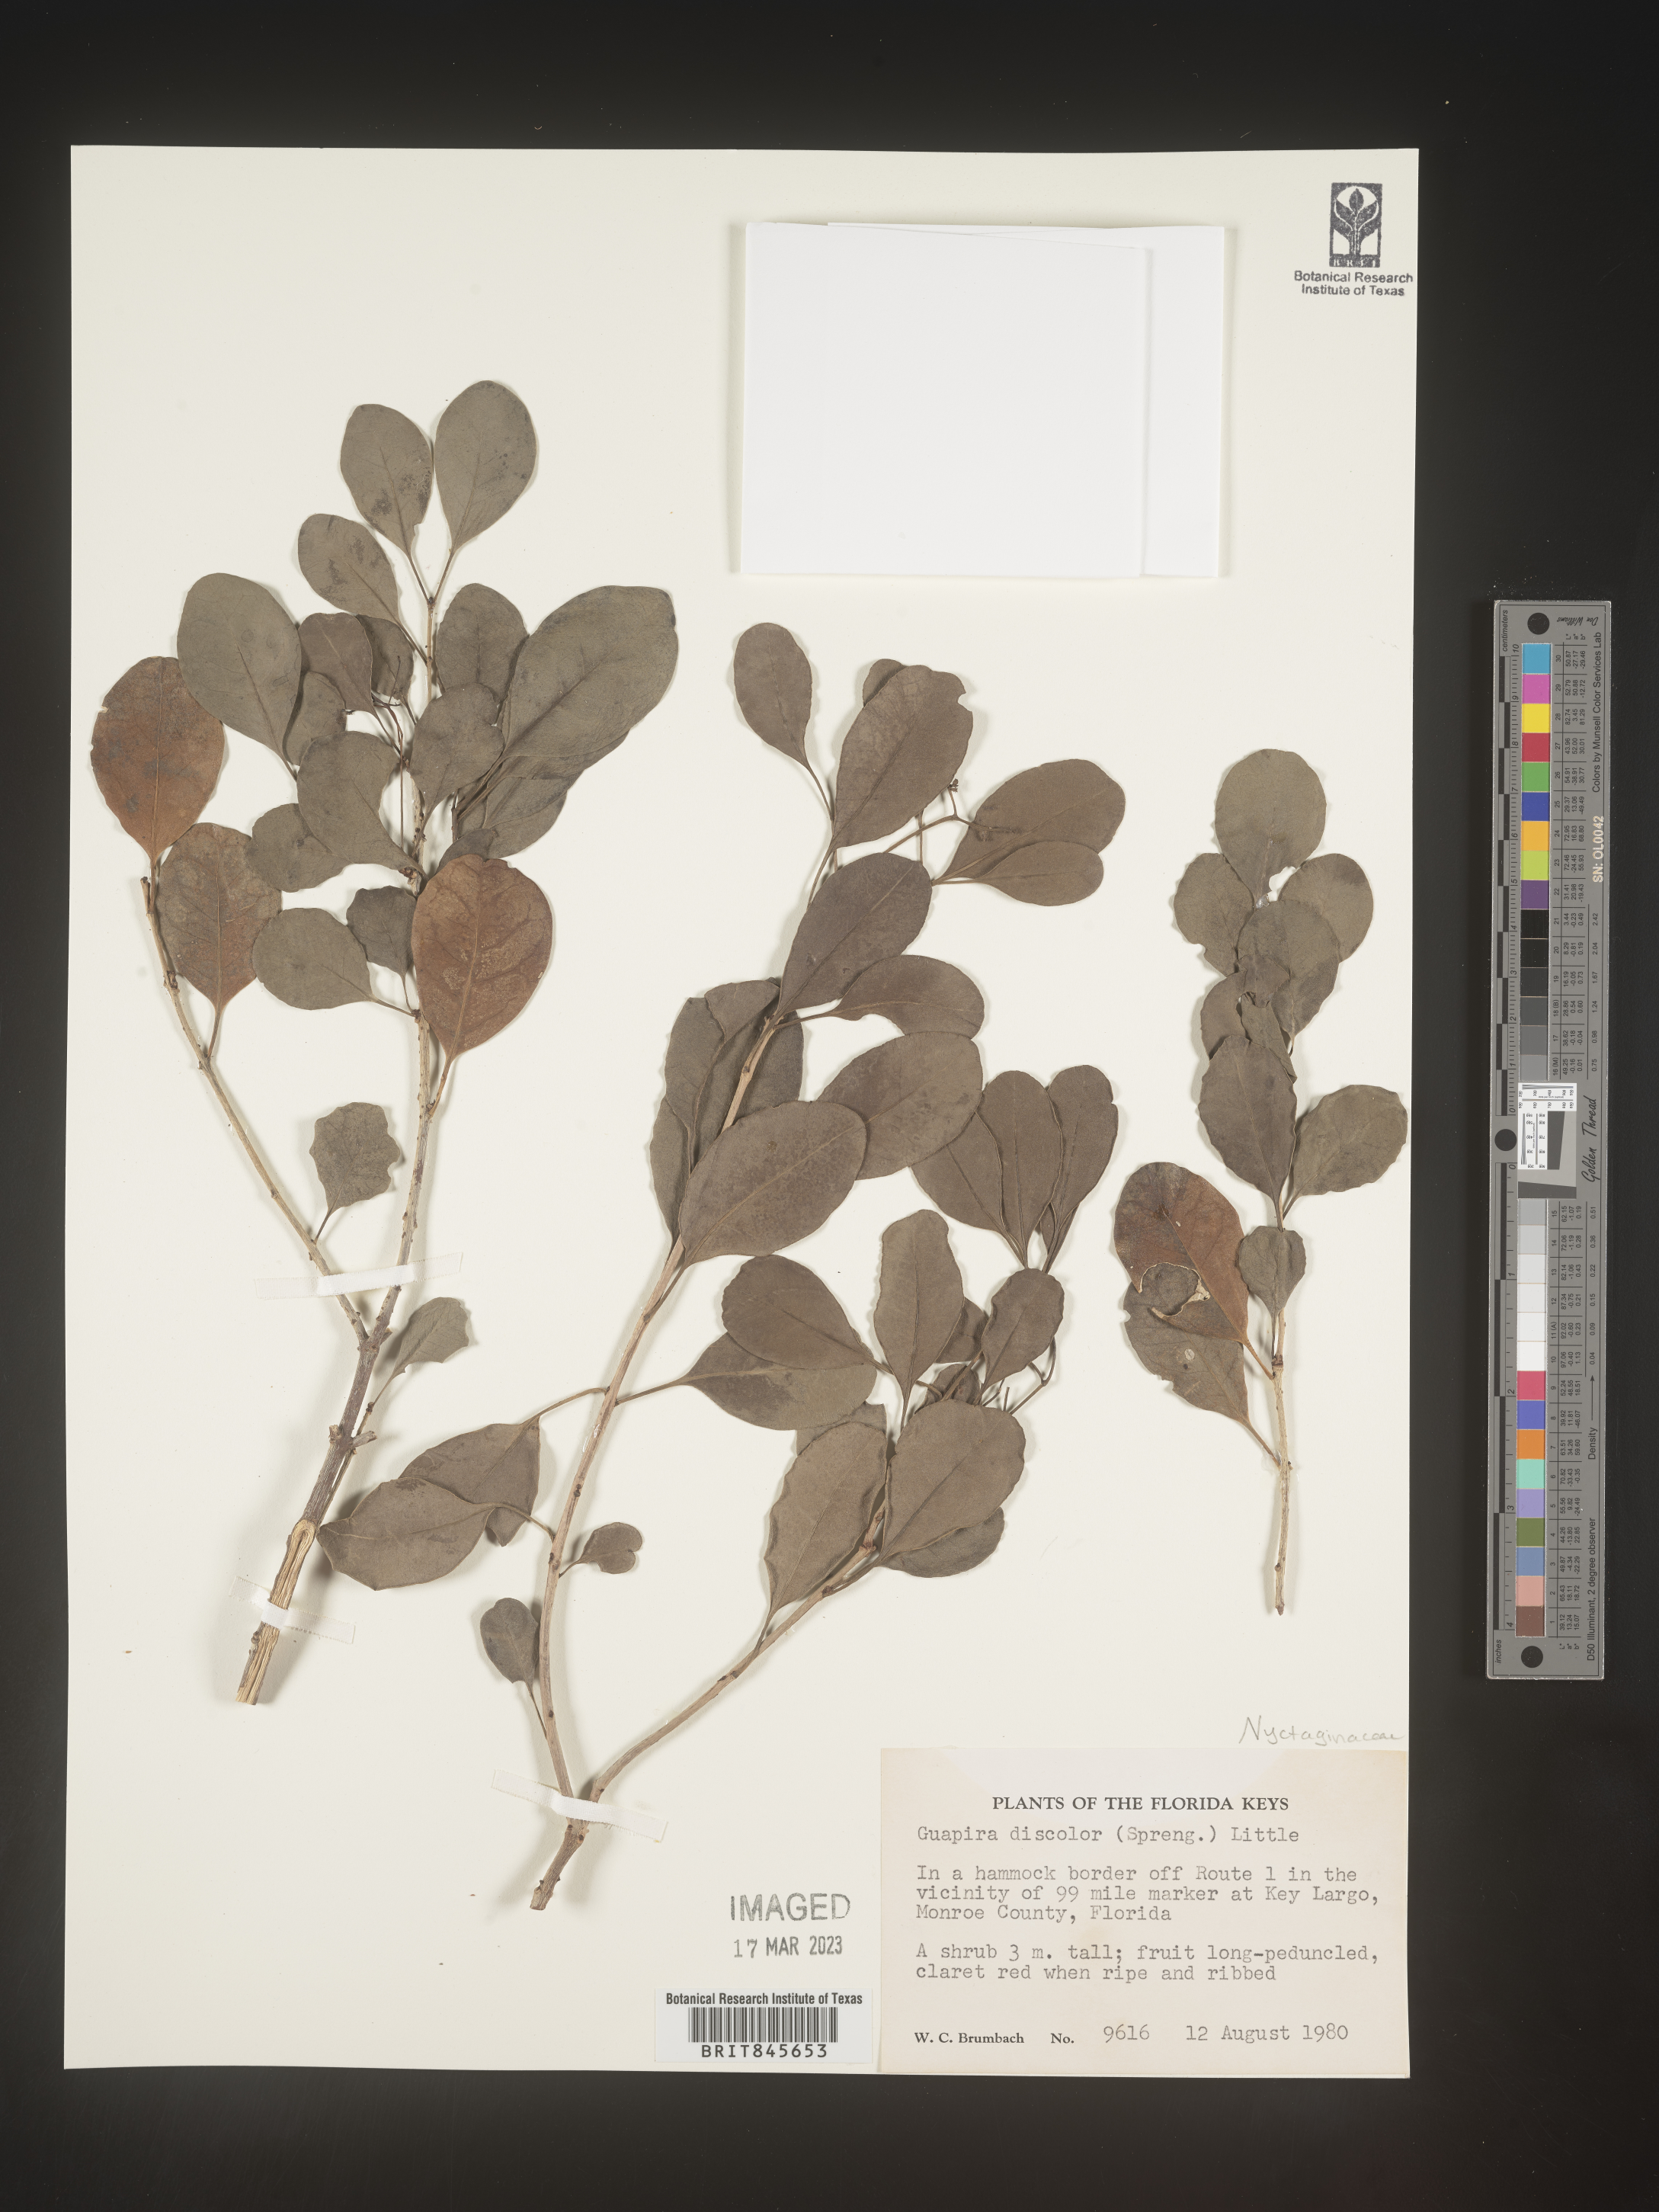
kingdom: Plantae
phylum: Tracheophyta
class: Magnoliopsida
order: Caryophyllales
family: Nyctaginaceae
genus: Guapira
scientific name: Guapira discolor
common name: Beeftree
